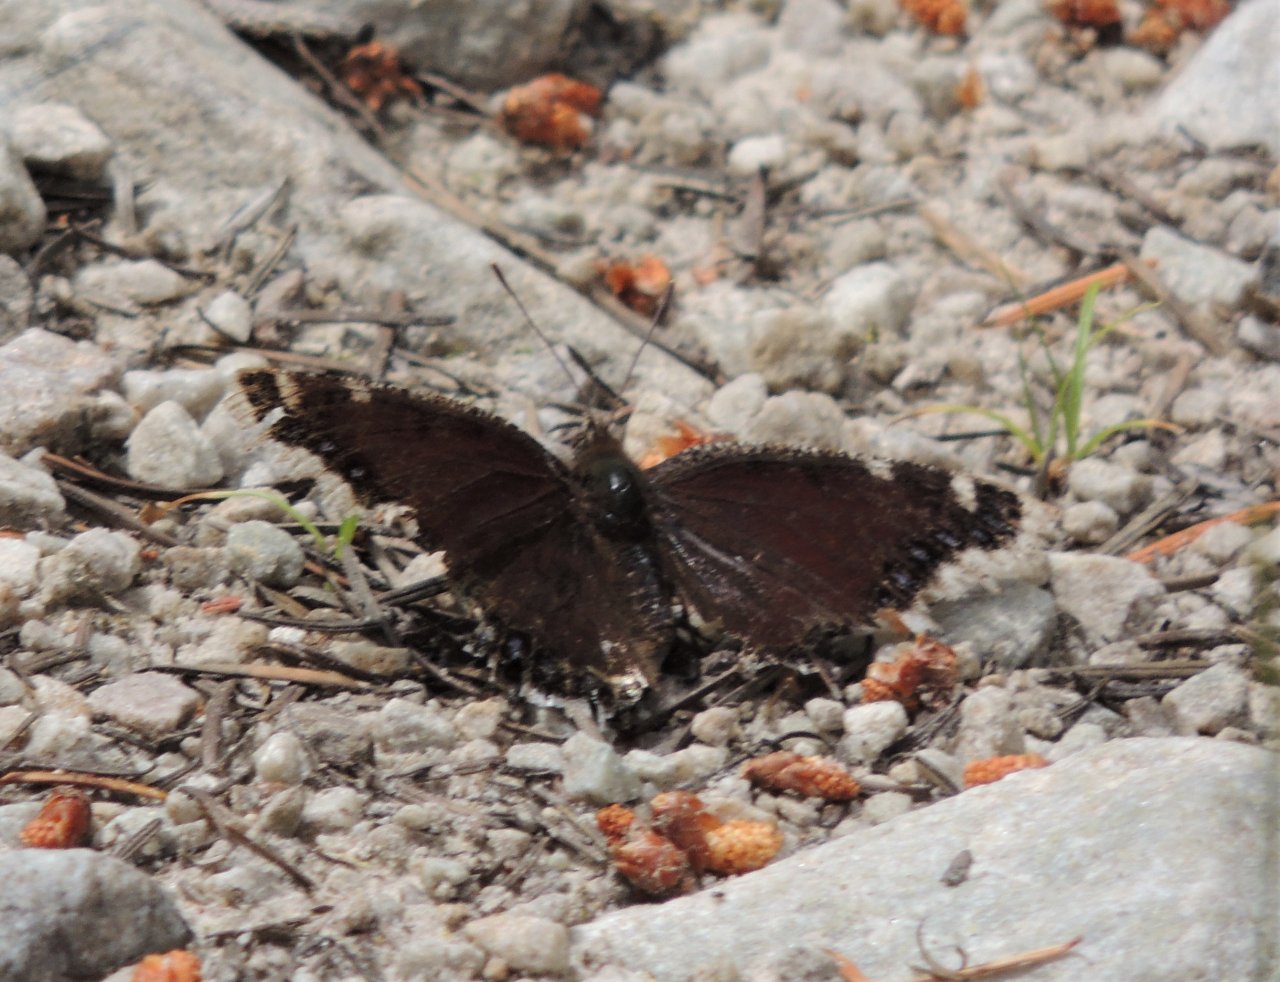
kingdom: Animalia
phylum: Arthropoda
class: Insecta
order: Lepidoptera
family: Nymphalidae
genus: Nymphalis
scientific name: Nymphalis antiopa
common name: Mourning Cloak
